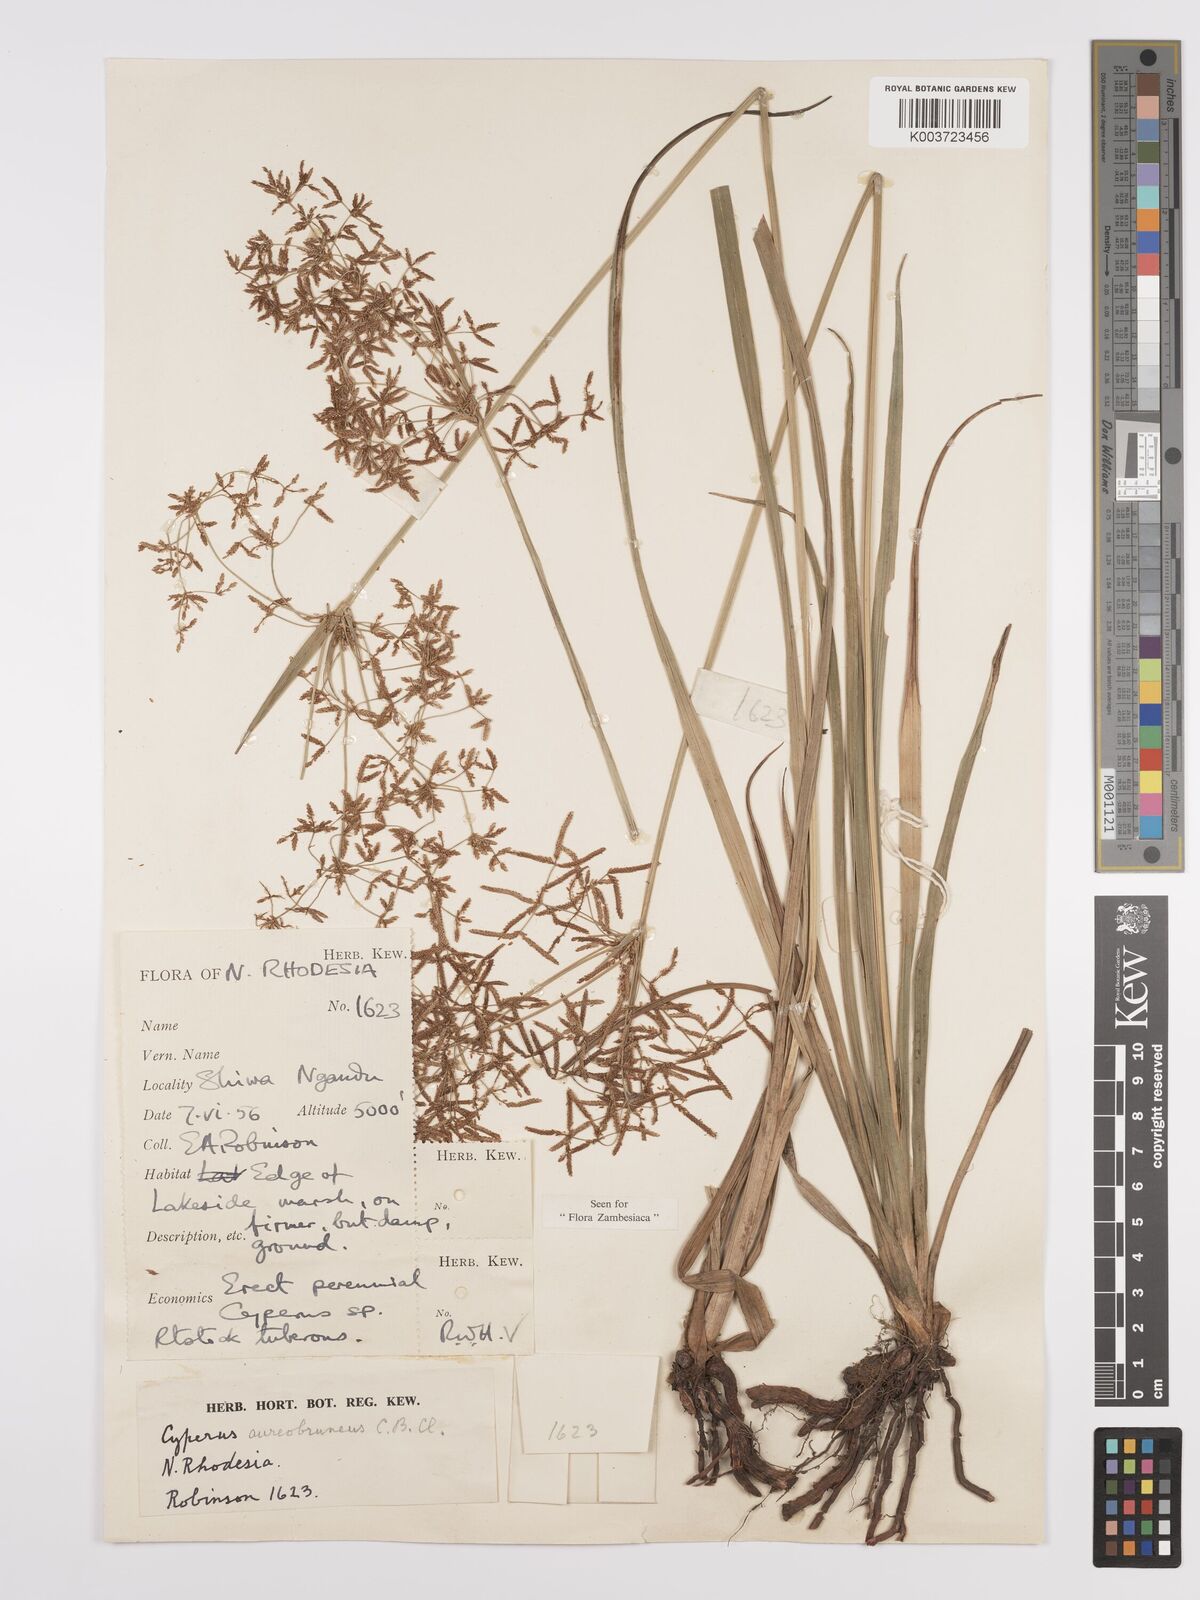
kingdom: Plantae
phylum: Tracheophyta
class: Liliopsida
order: Poales
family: Cyperaceae
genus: Cyperus
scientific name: Cyperus aureobrunneus
